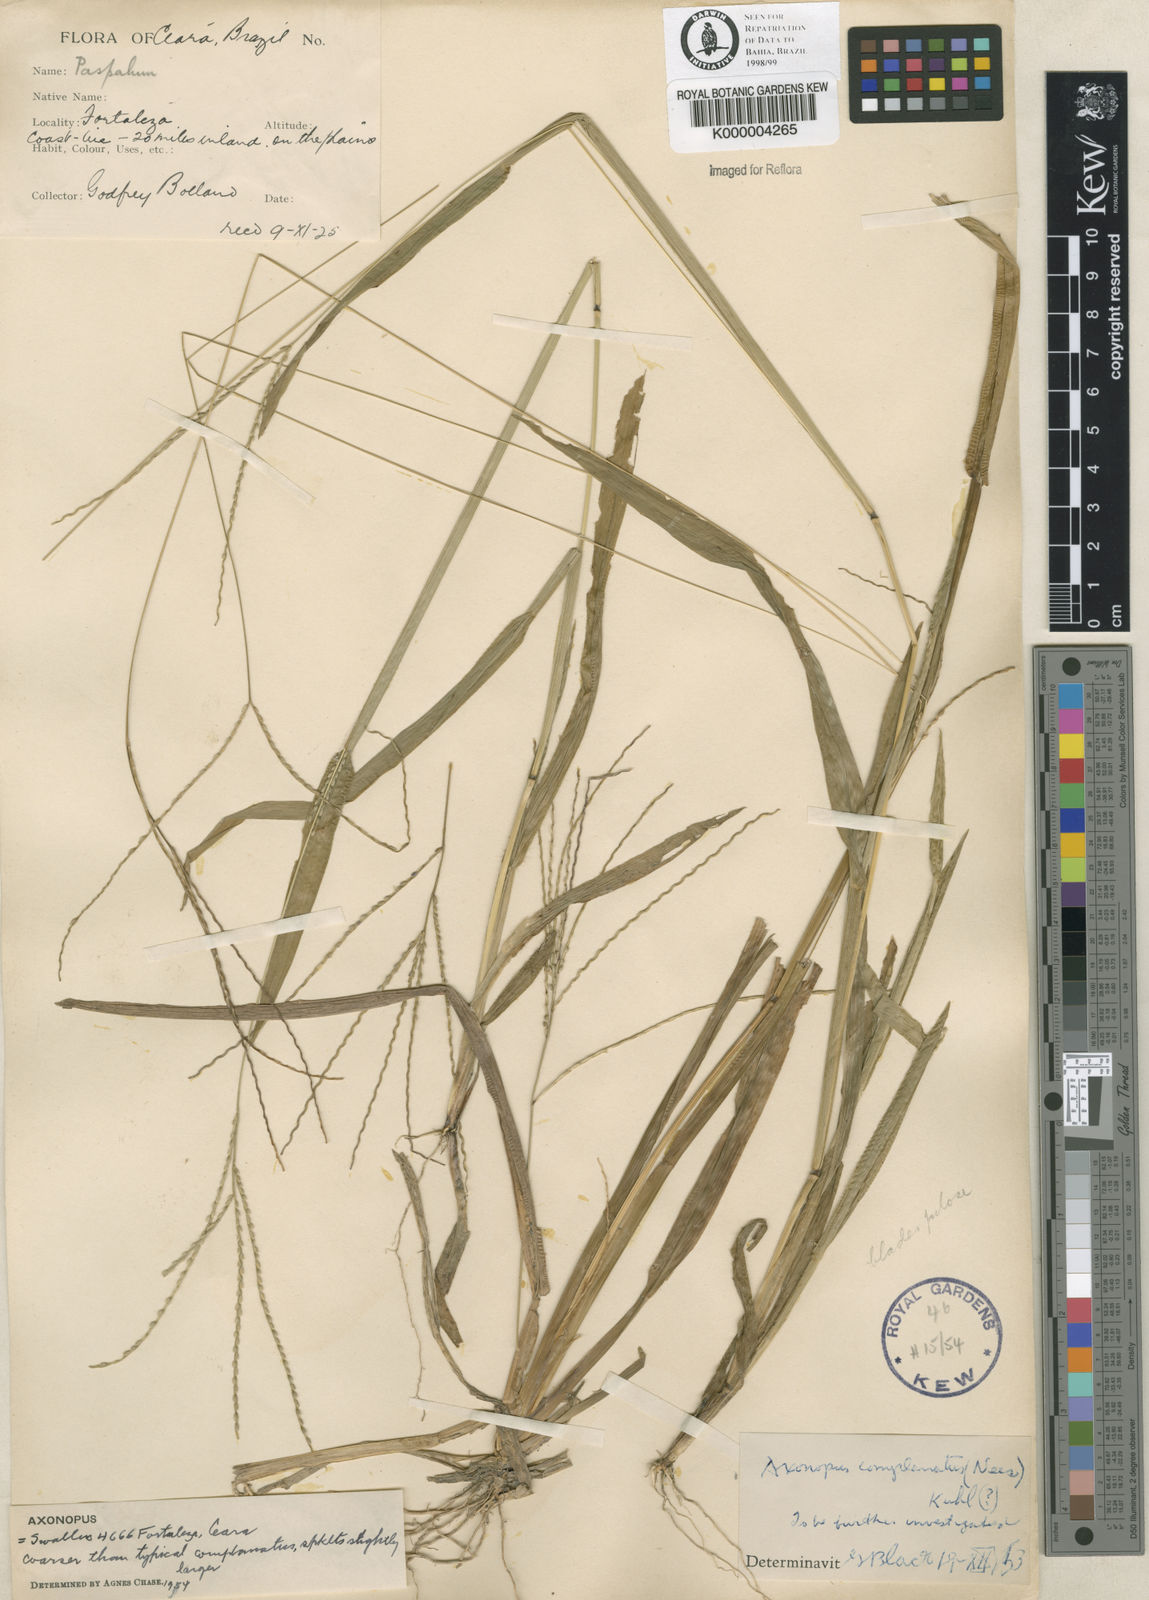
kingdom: Plantae
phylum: Tracheophyta
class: Liliopsida
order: Poales
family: Poaceae
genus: Axonopus
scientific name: Axonopus
